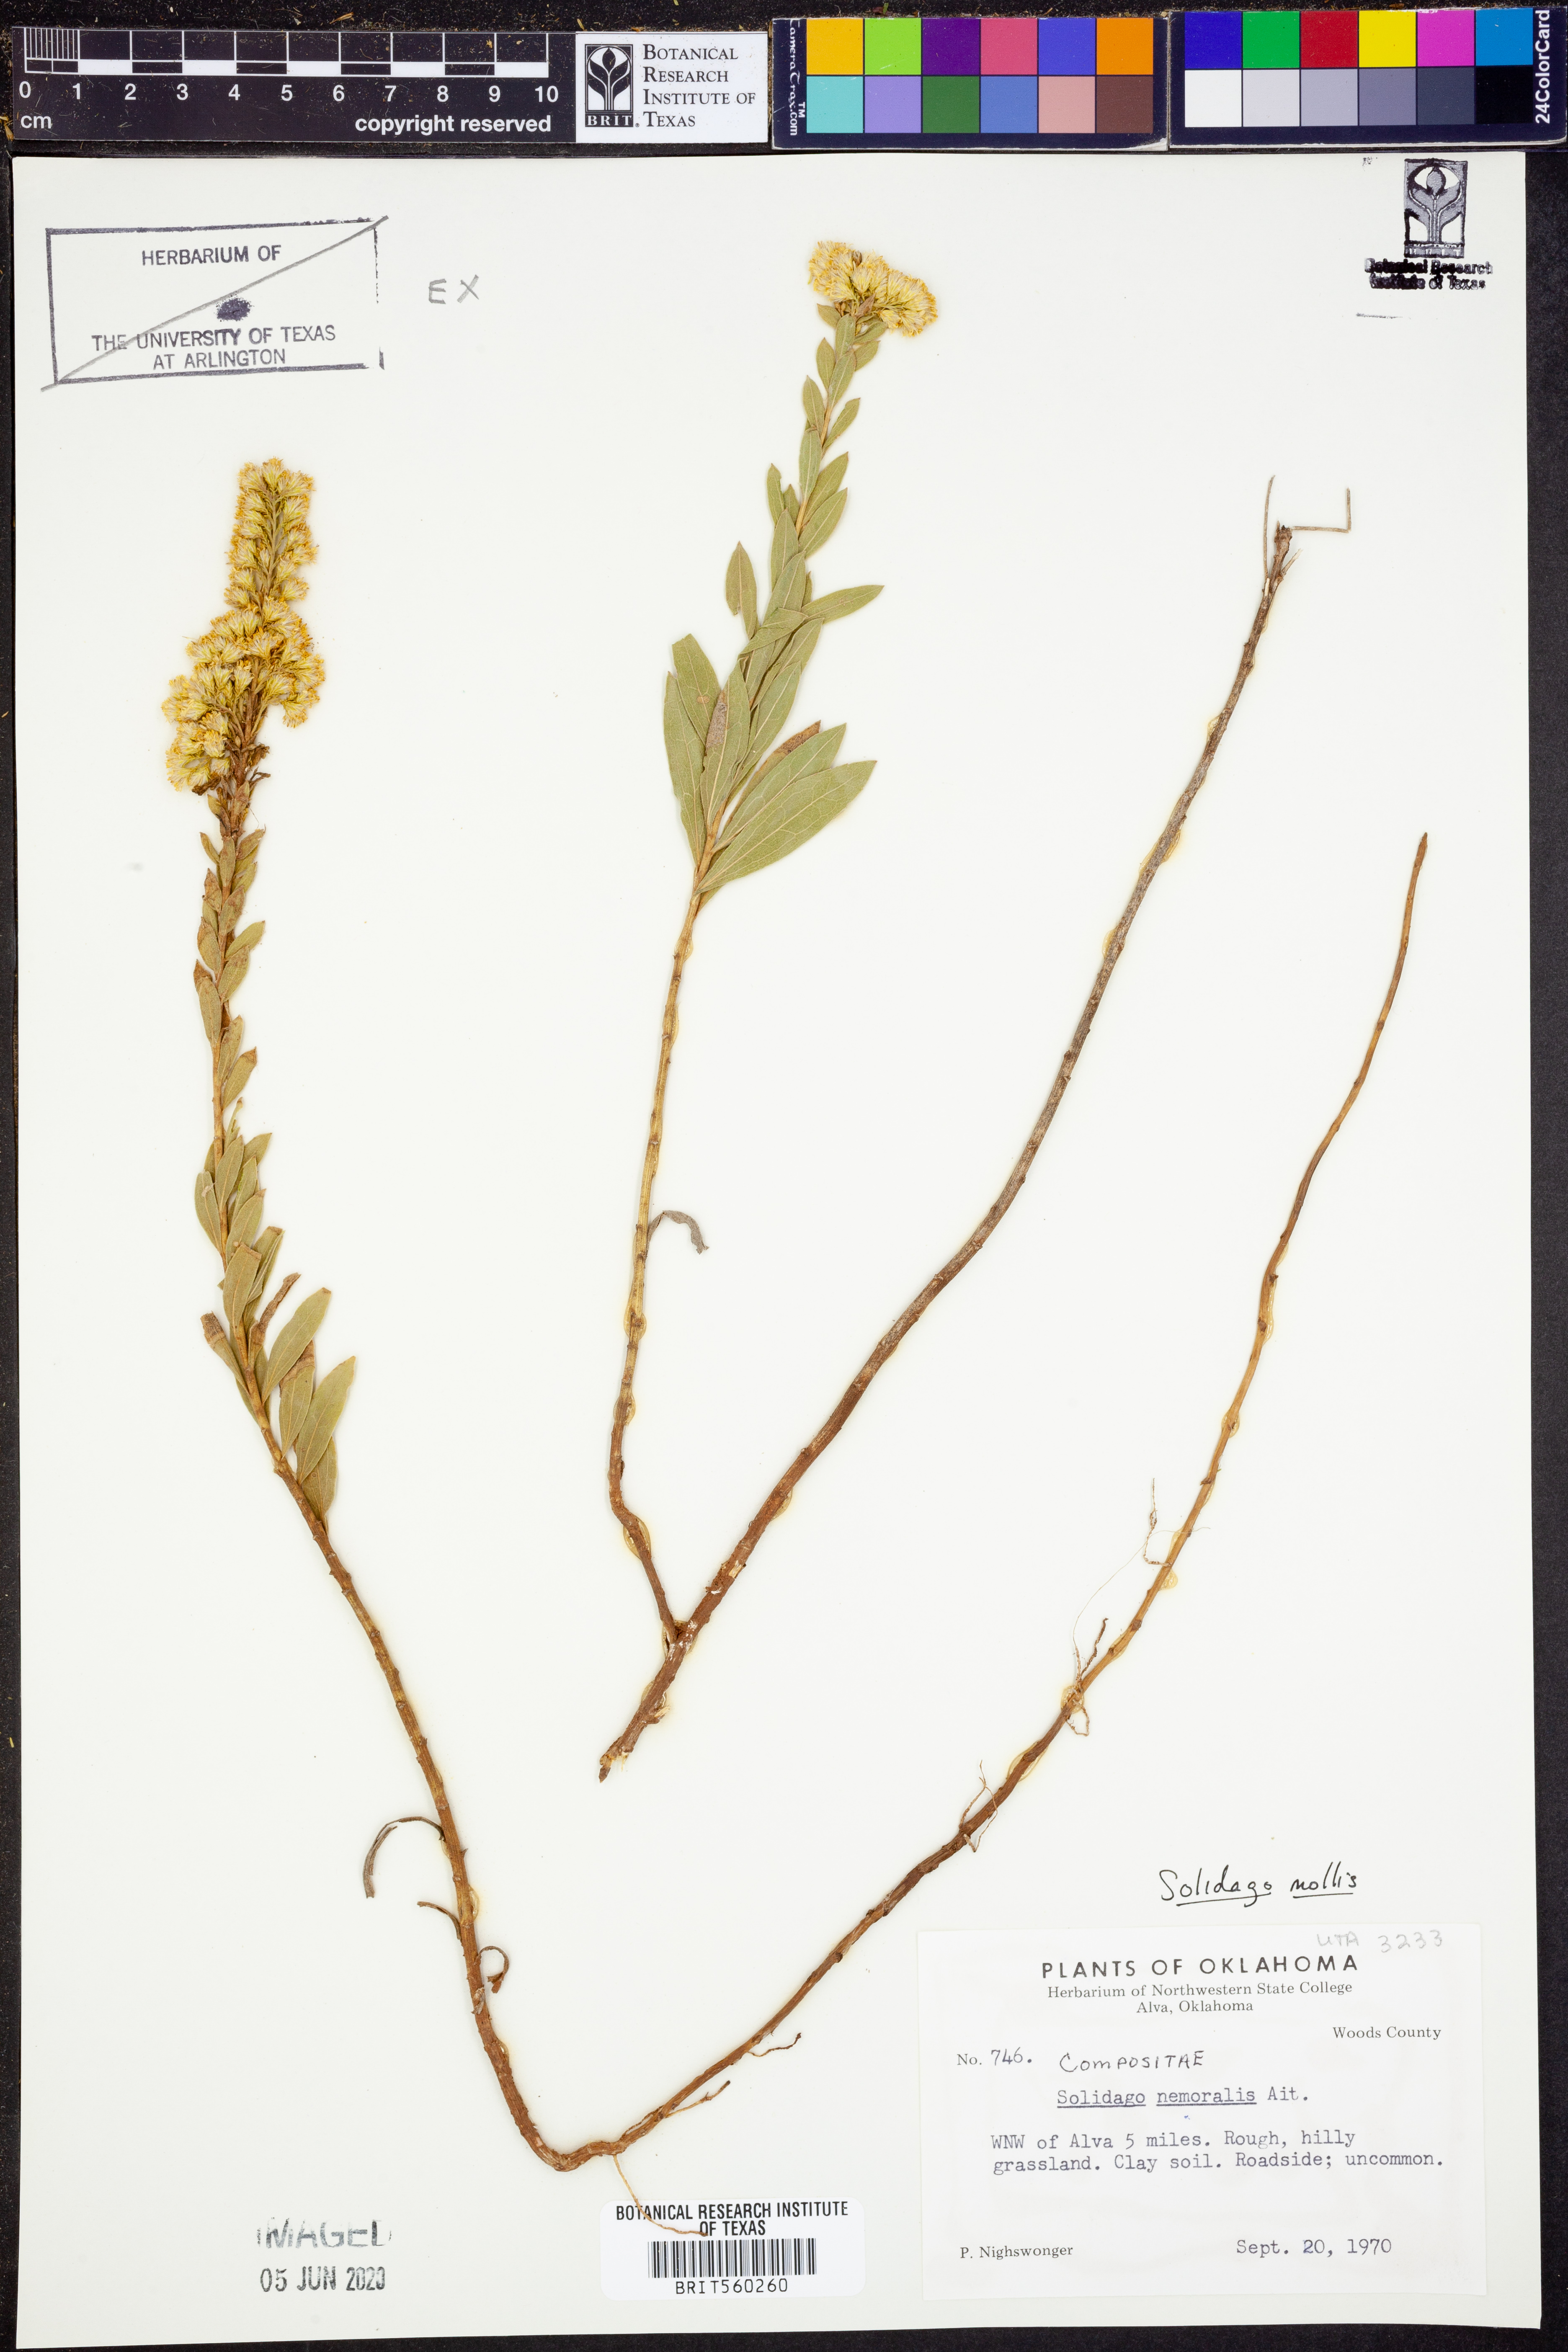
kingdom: Plantae
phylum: Tracheophyta
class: Magnoliopsida
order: Asterales
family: Asteraceae
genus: Solidago
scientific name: Solidago mollis
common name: Ashly goldenrod
